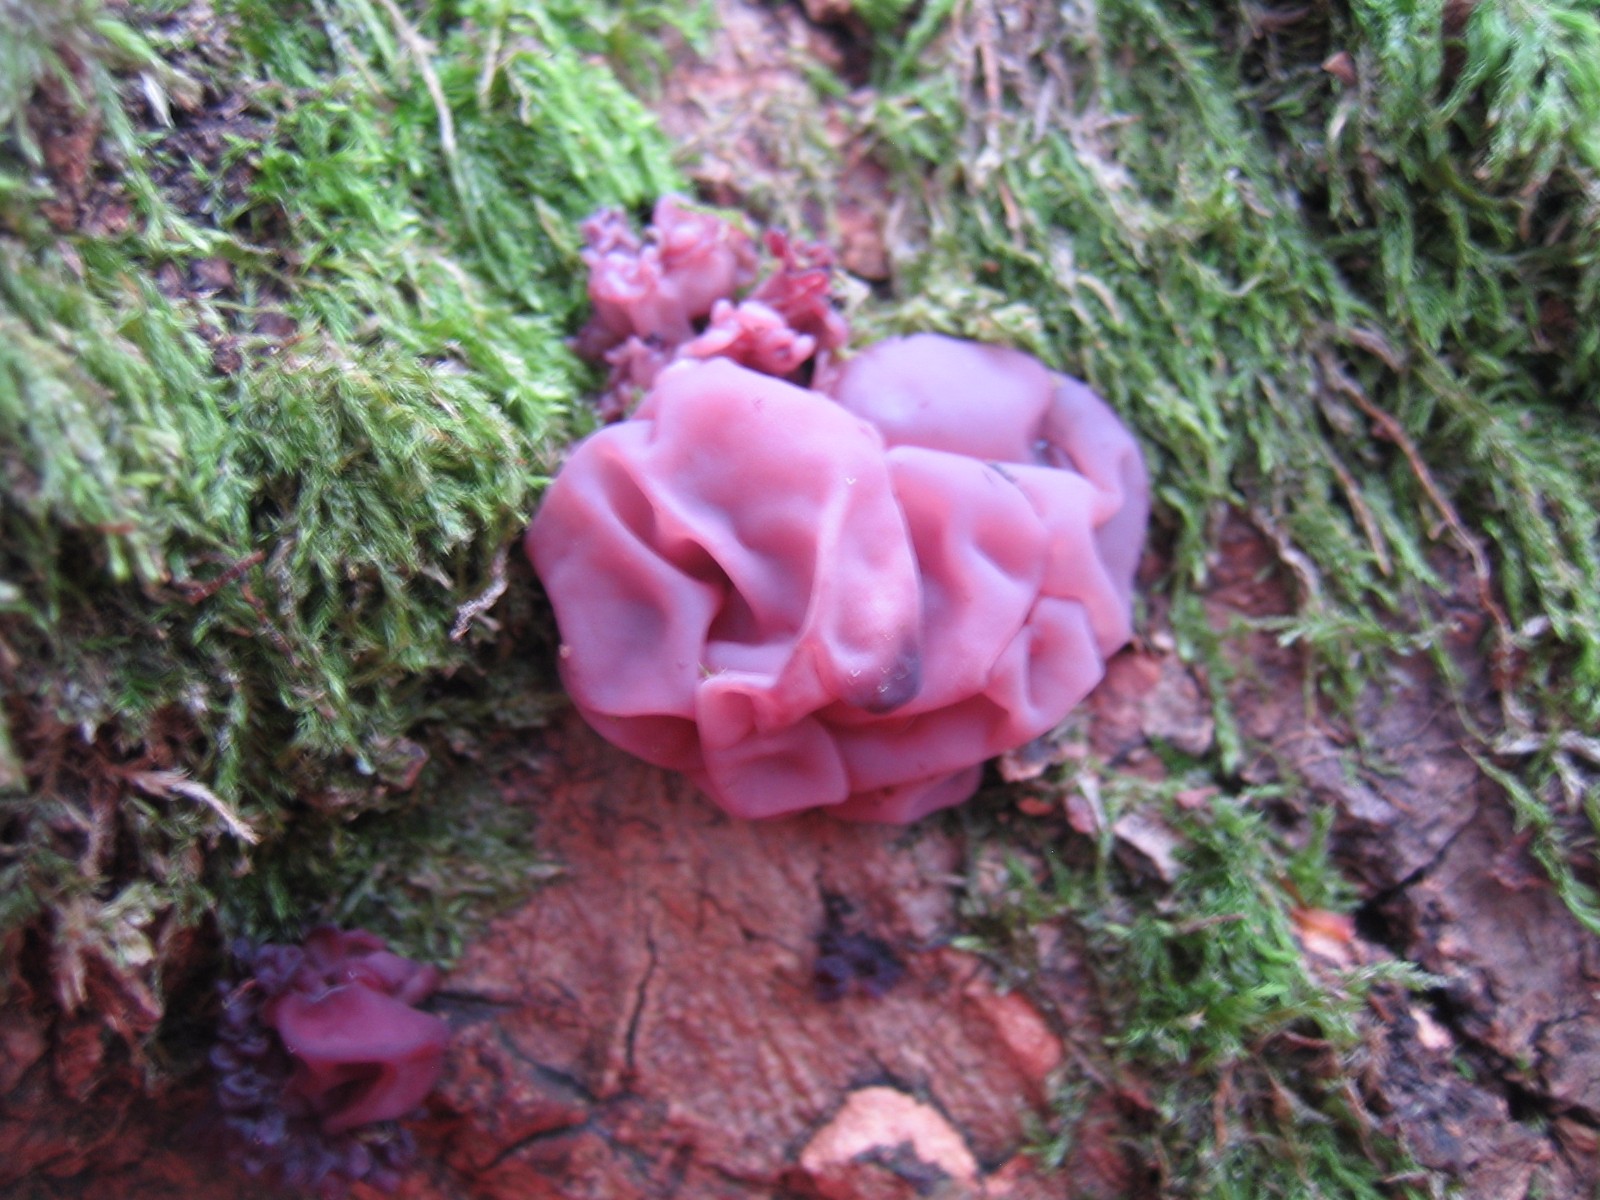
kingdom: Fungi
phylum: Ascomycota
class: Leotiomycetes
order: Helotiales
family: Gelatinodiscaceae
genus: Ascocoryne
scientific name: Ascocoryne sarcoides
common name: rødlilla sejskive
